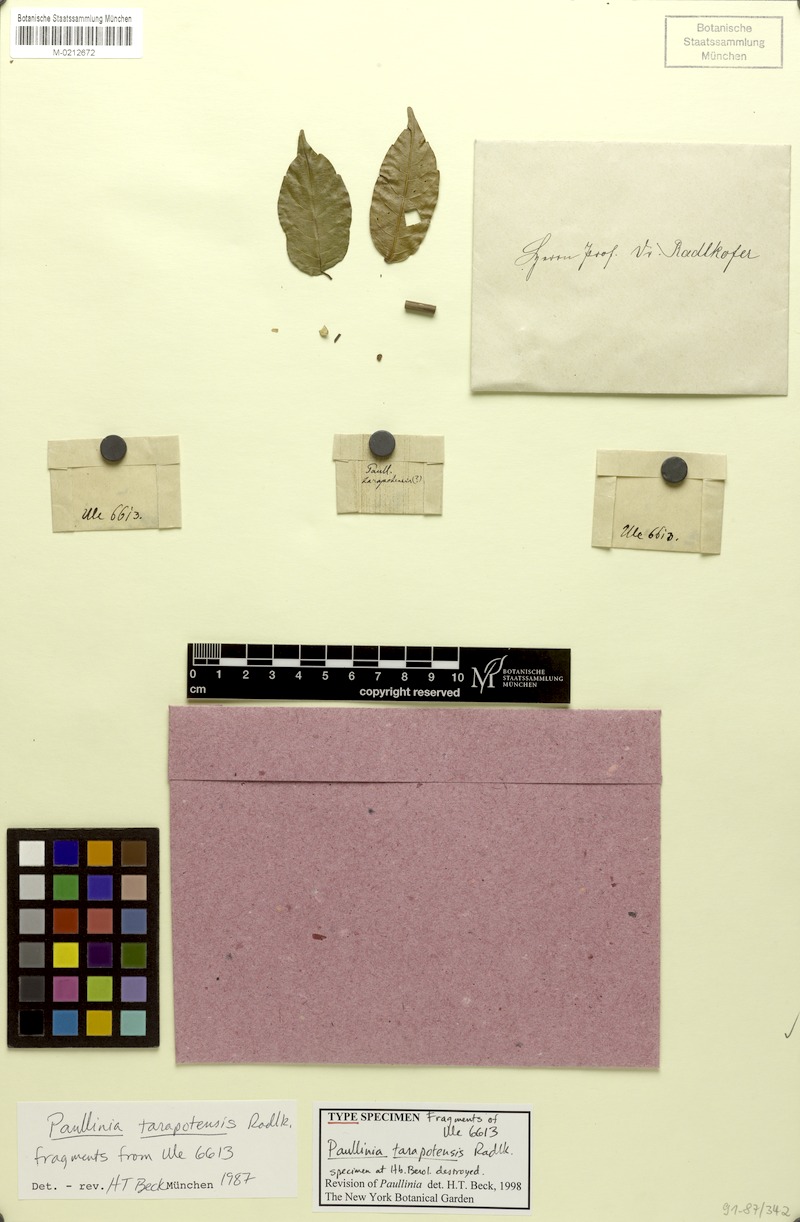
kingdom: Plantae
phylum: Tracheophyta
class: Magnoliopsida
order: Sapindales
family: Sapindaceae
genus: Paullinia
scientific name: Paullinia tarapotensis
